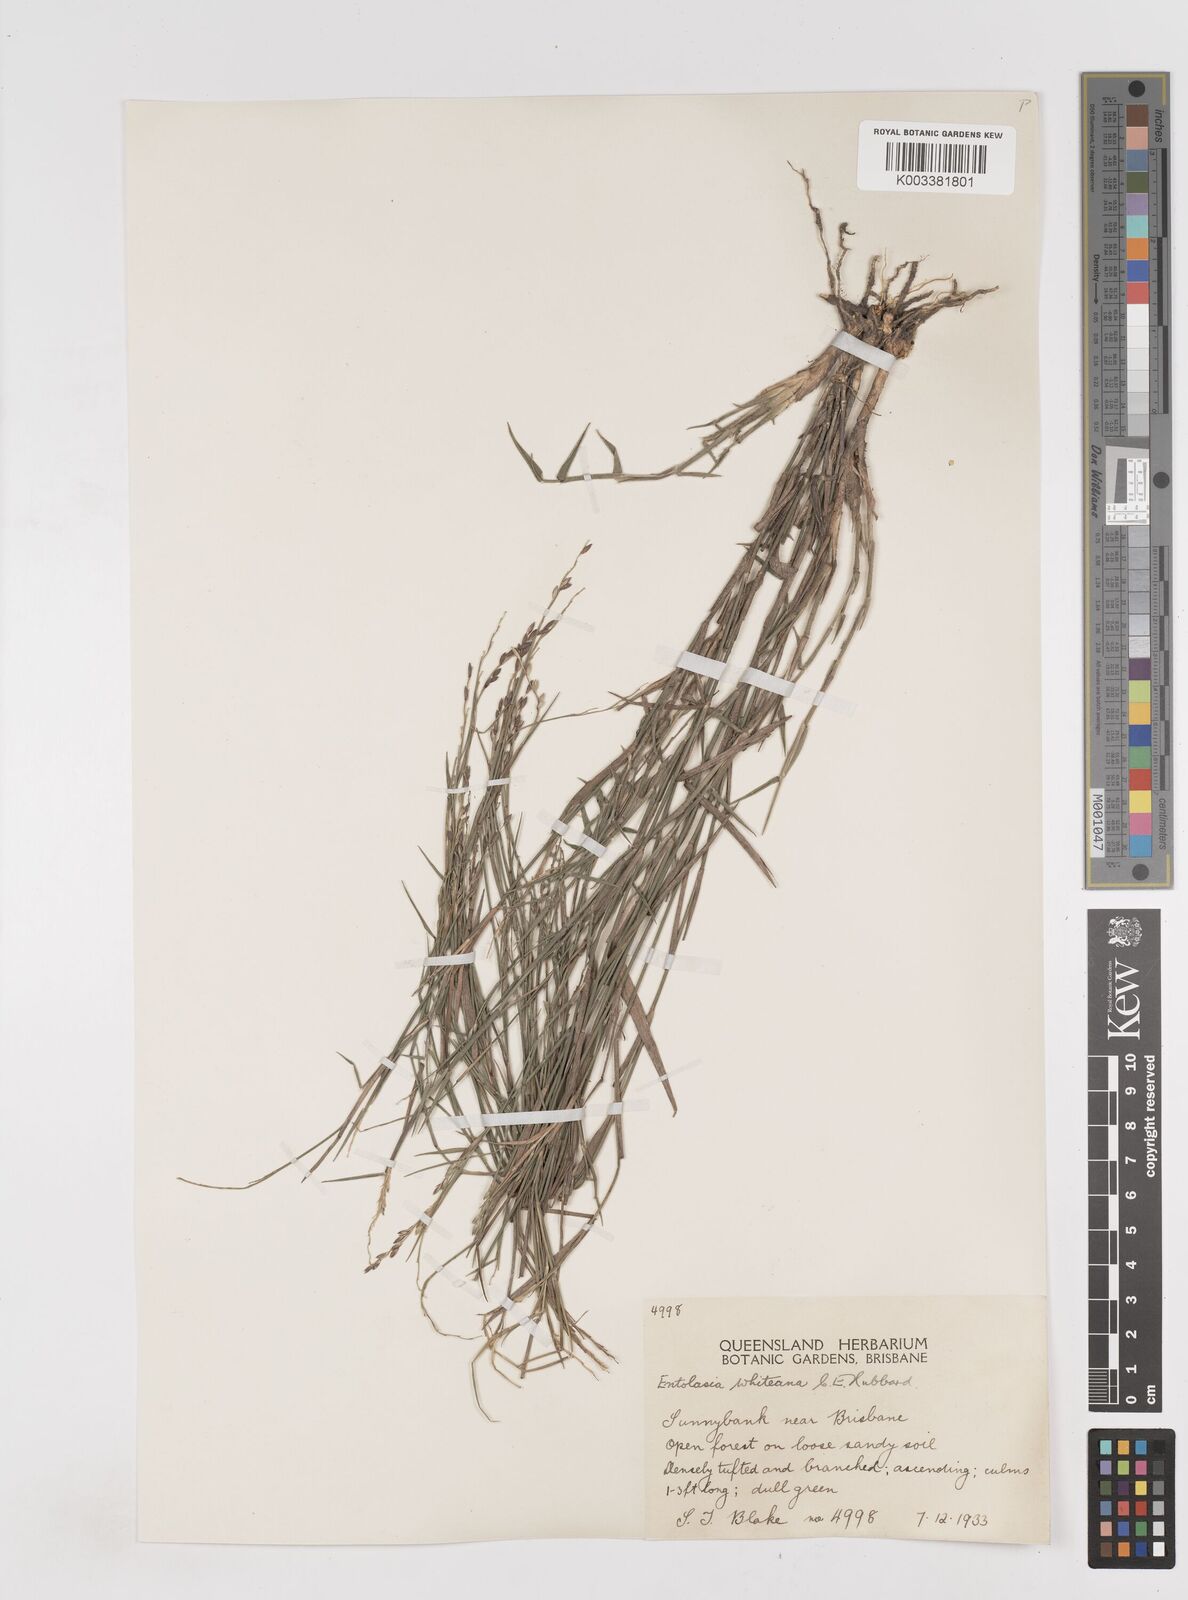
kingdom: Plantae
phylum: Tracheophyta
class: Liliopsida
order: Poales
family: Poaceae
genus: Entolasia
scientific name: Entolasia whiteana
